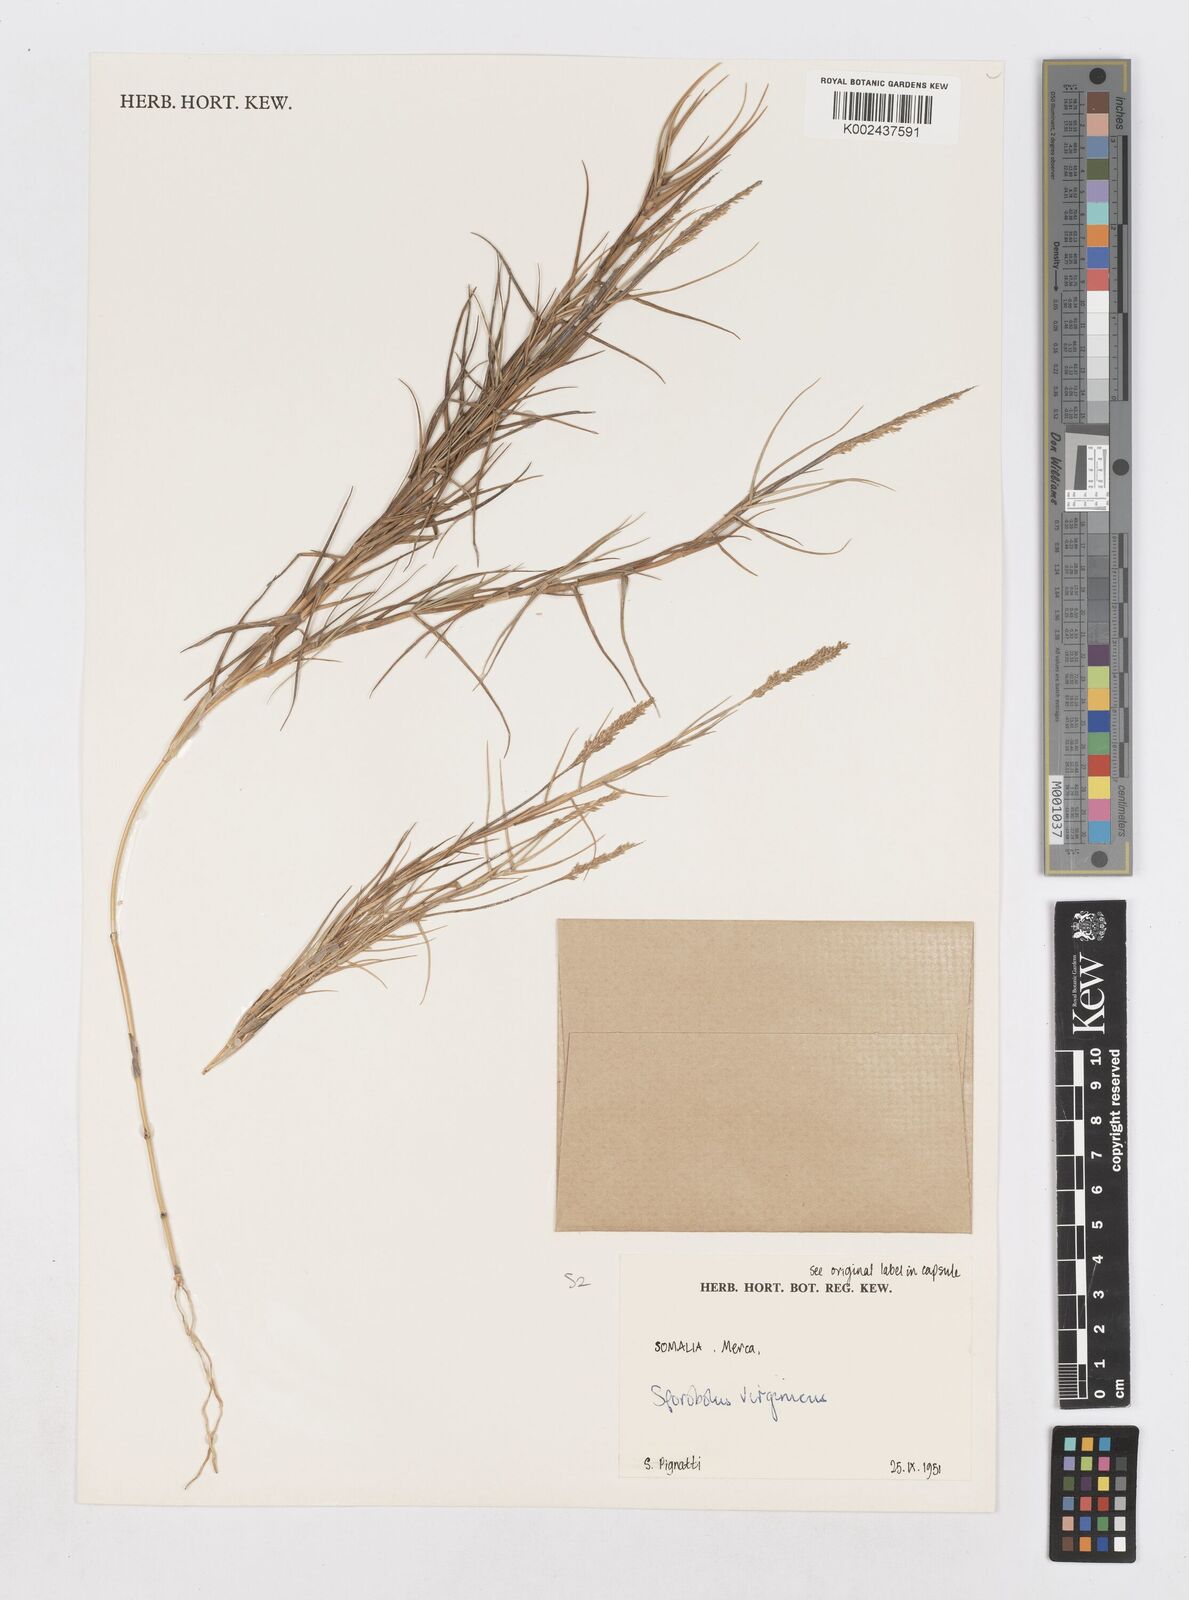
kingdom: Plantae
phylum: Tracheophyta
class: Liliopsida
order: Poales
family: Poaceae
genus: Sporobolus
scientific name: Sporobolus virginicus
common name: Beach dropseed
